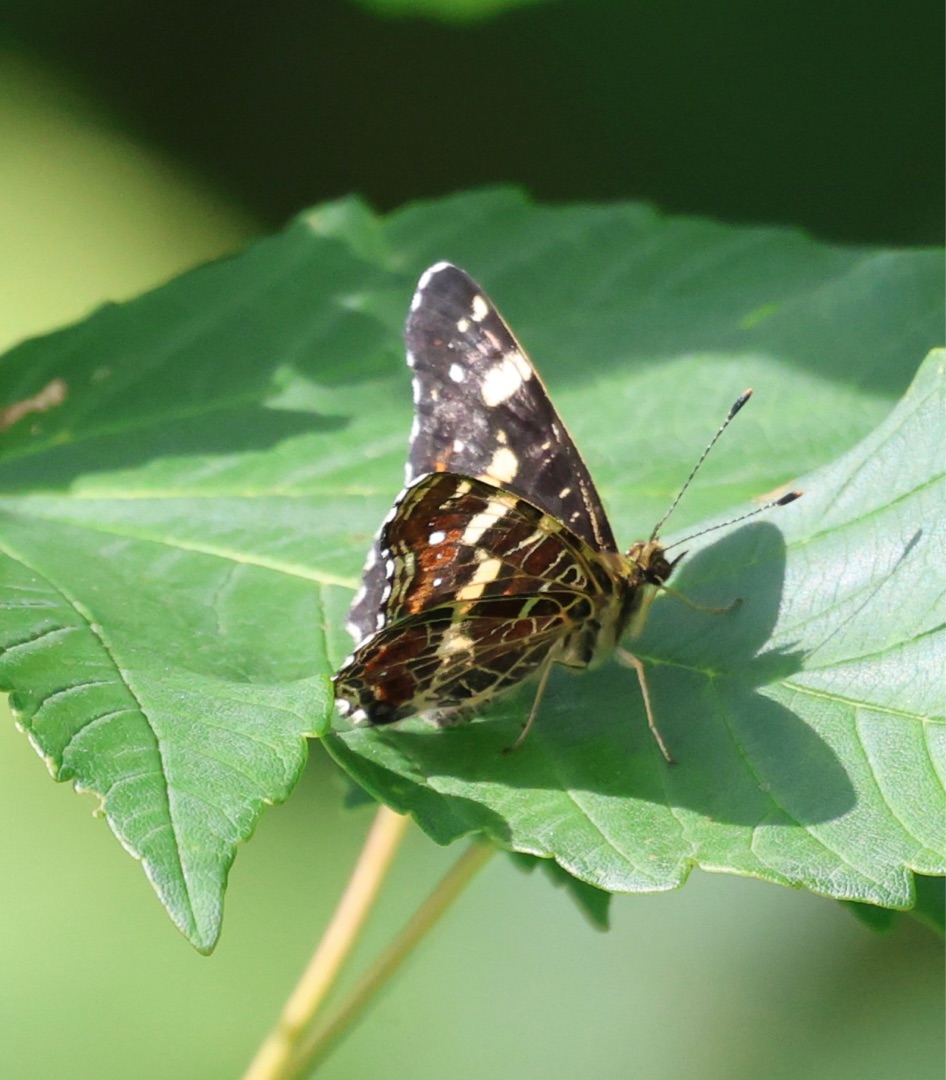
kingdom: Animalia
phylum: Arthropoda
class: Insecta
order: Lepidoptera
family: Nymphalidae
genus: Araschnia
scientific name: Araschnia levana
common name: Nældesommerfugl
